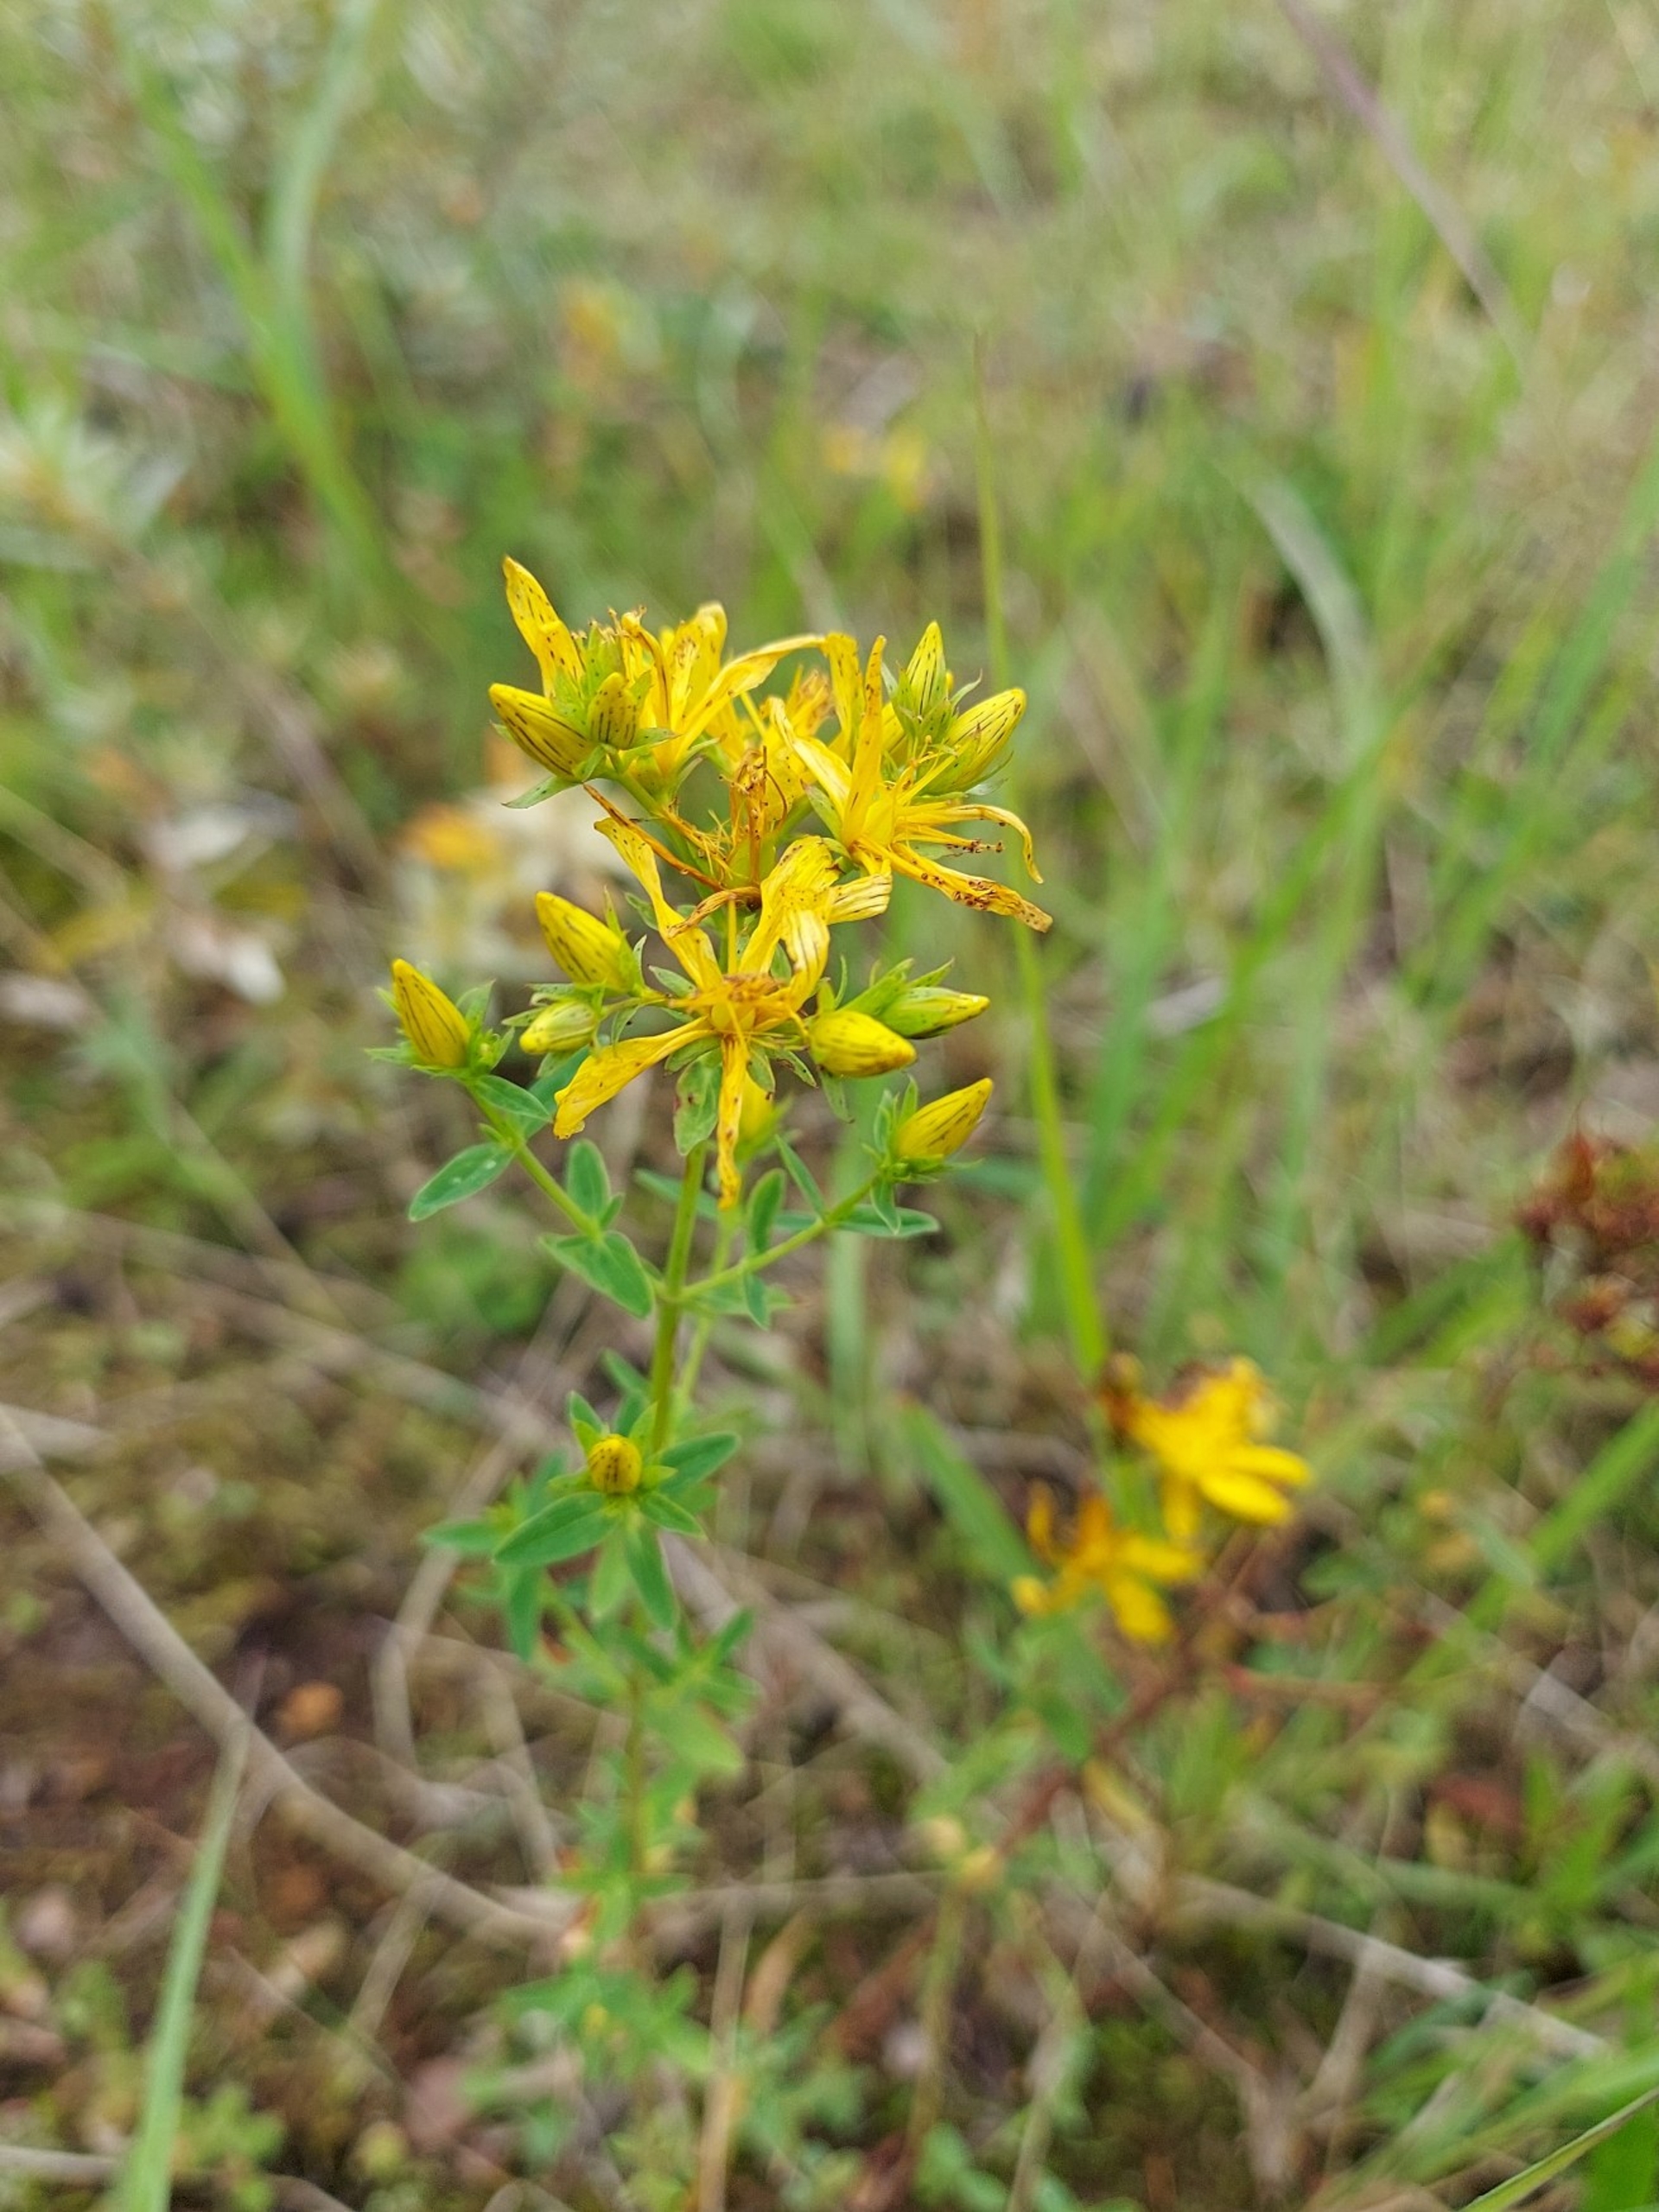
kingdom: Plantae
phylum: Tracheophyta
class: Magnoliopsida
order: Malpighiales
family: Hypericaceae
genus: Hypericum
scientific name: Hypericum perforatum
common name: Prikbladet perikon
